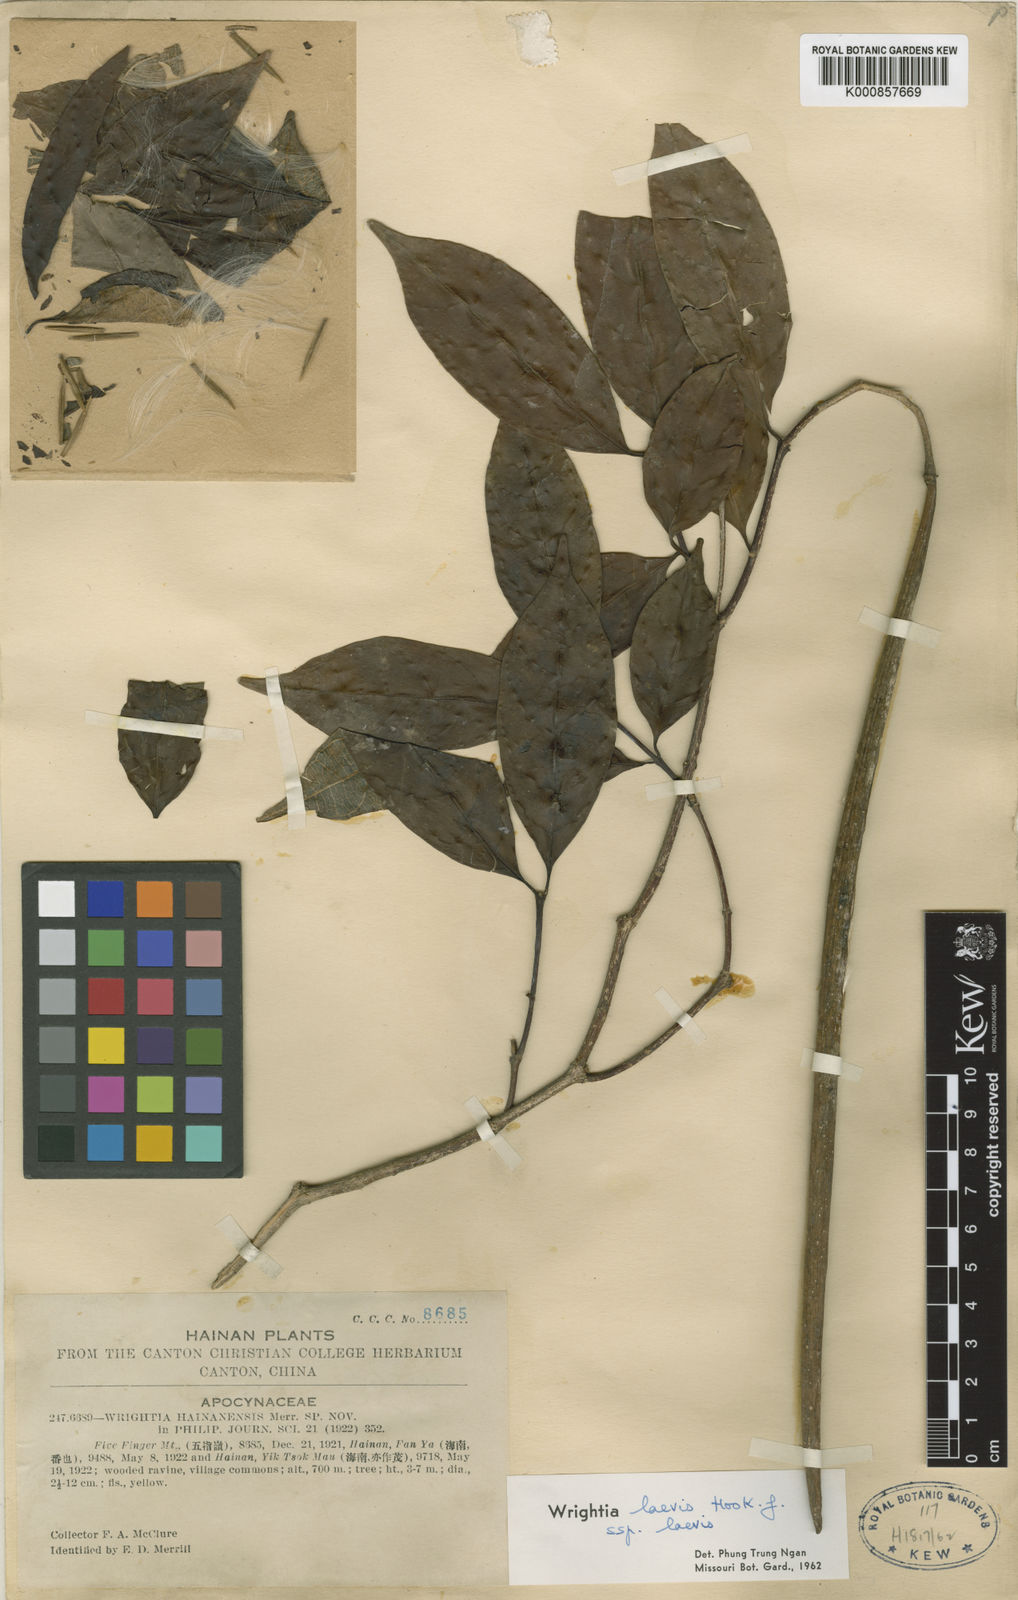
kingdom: Plantae
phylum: Tracheophyta
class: Magnoliopsida
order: Gentianales
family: Apocynaceae
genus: Wrightia
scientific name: Wrightia laevis
